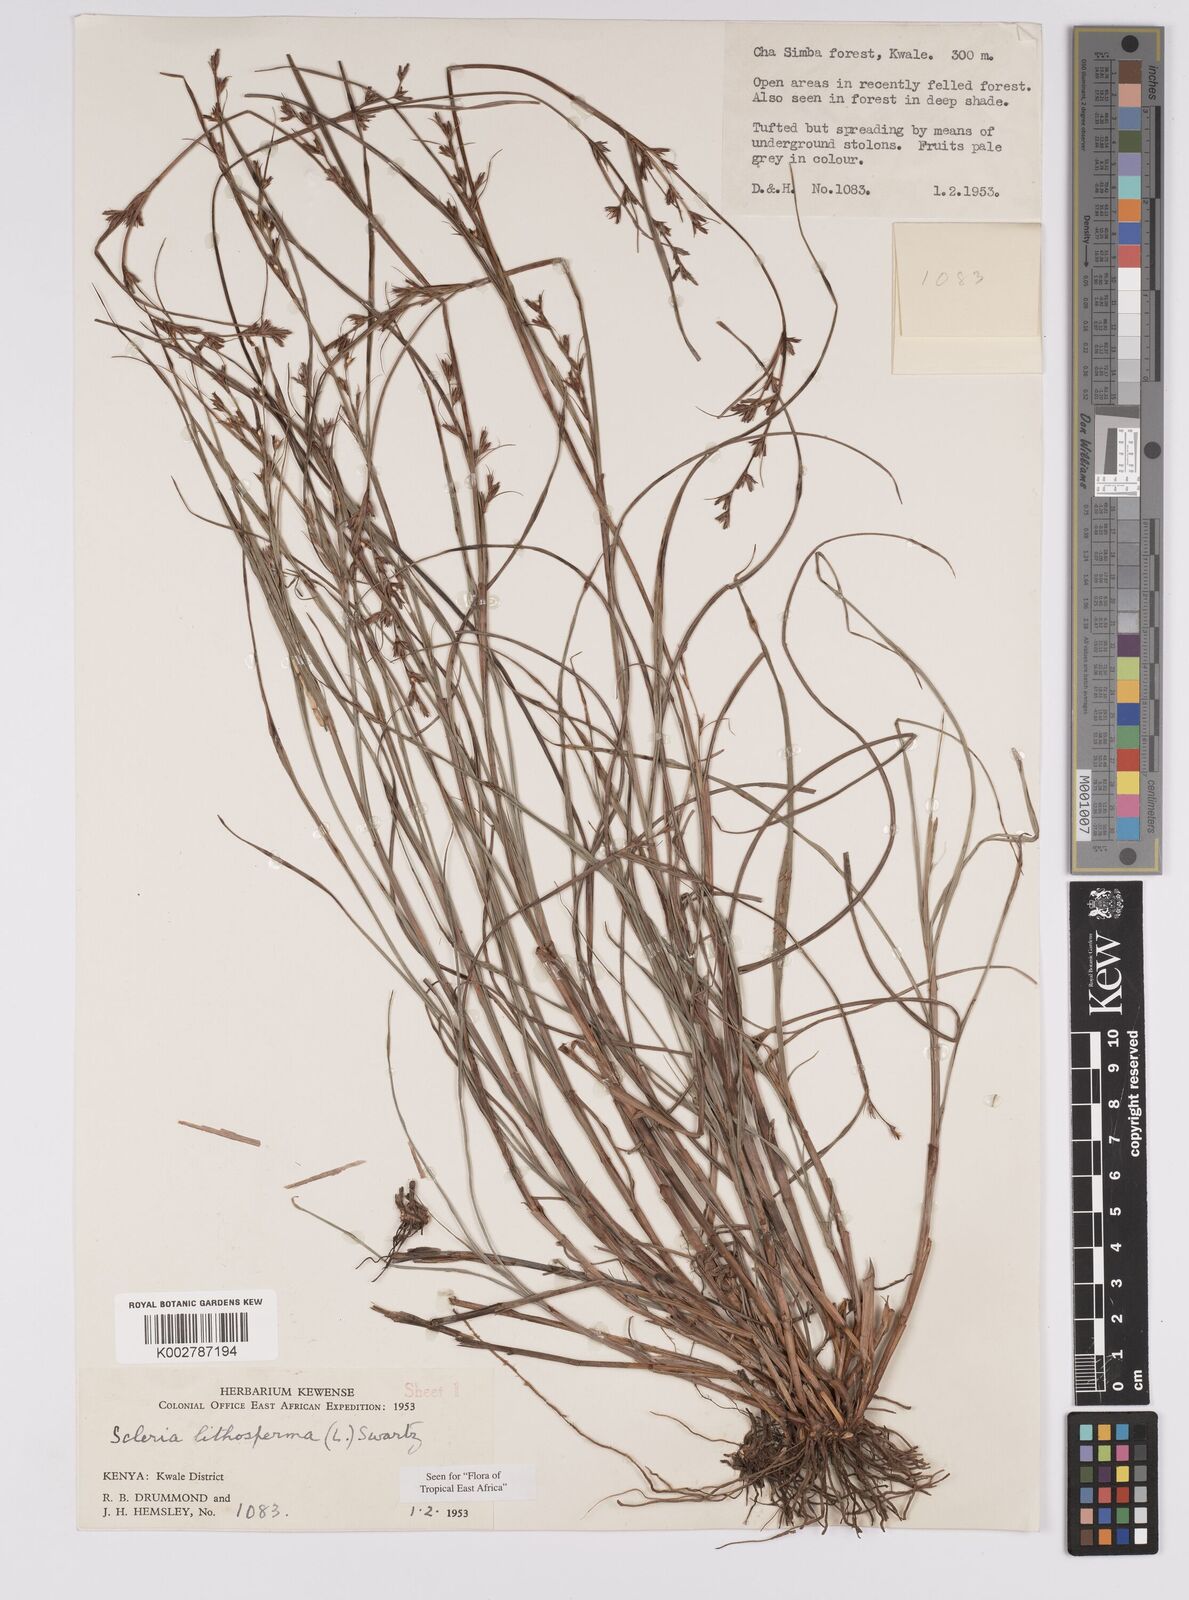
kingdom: Plantae
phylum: Tracheophyta
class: Liliopsida
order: Poales
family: Cyperaceae
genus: Scleria
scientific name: Scleria lithosperma
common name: Florida keys nut-rush
